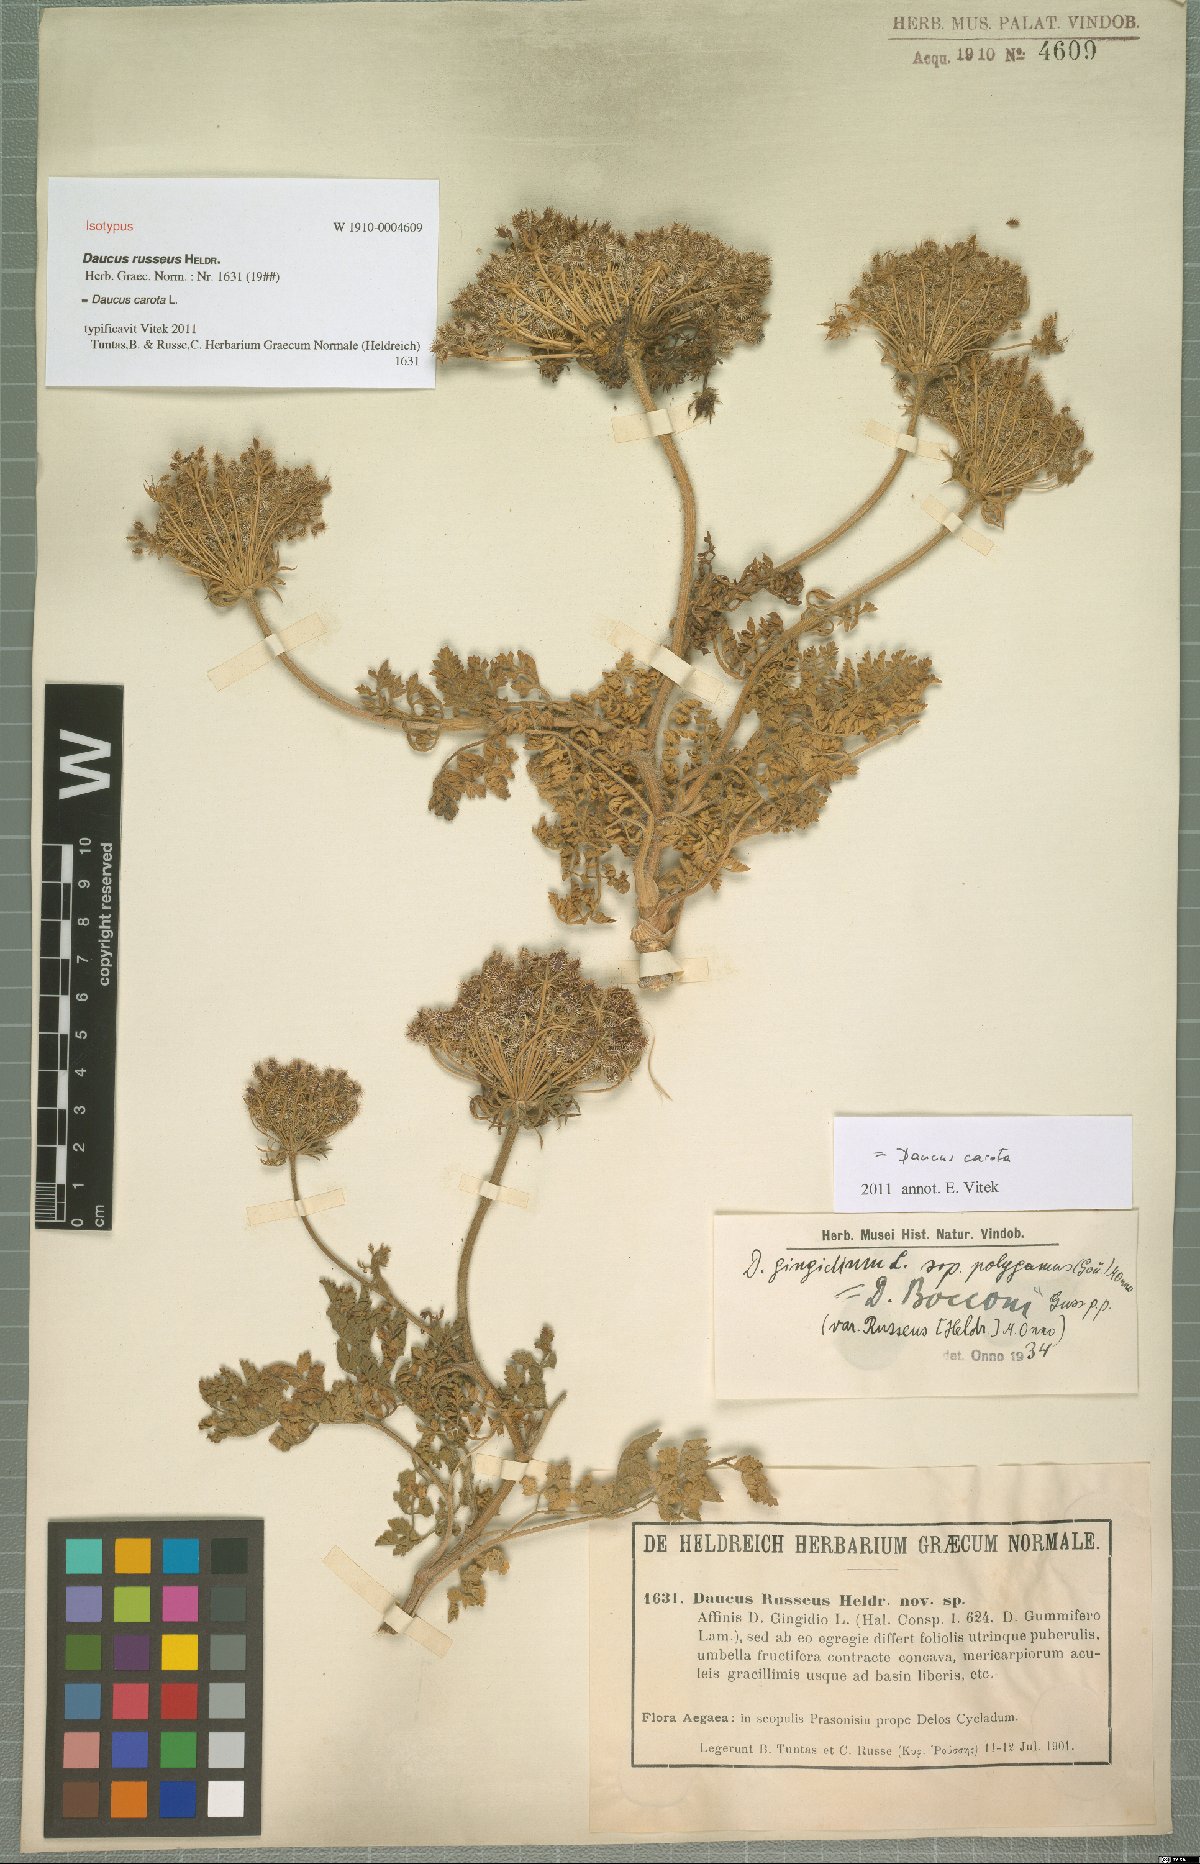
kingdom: Plantae
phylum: Tracheophyta
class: Magnoliopsida
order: Apiales
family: Apiaceae
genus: Daucus
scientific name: Daucus carota
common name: Wild carrot
